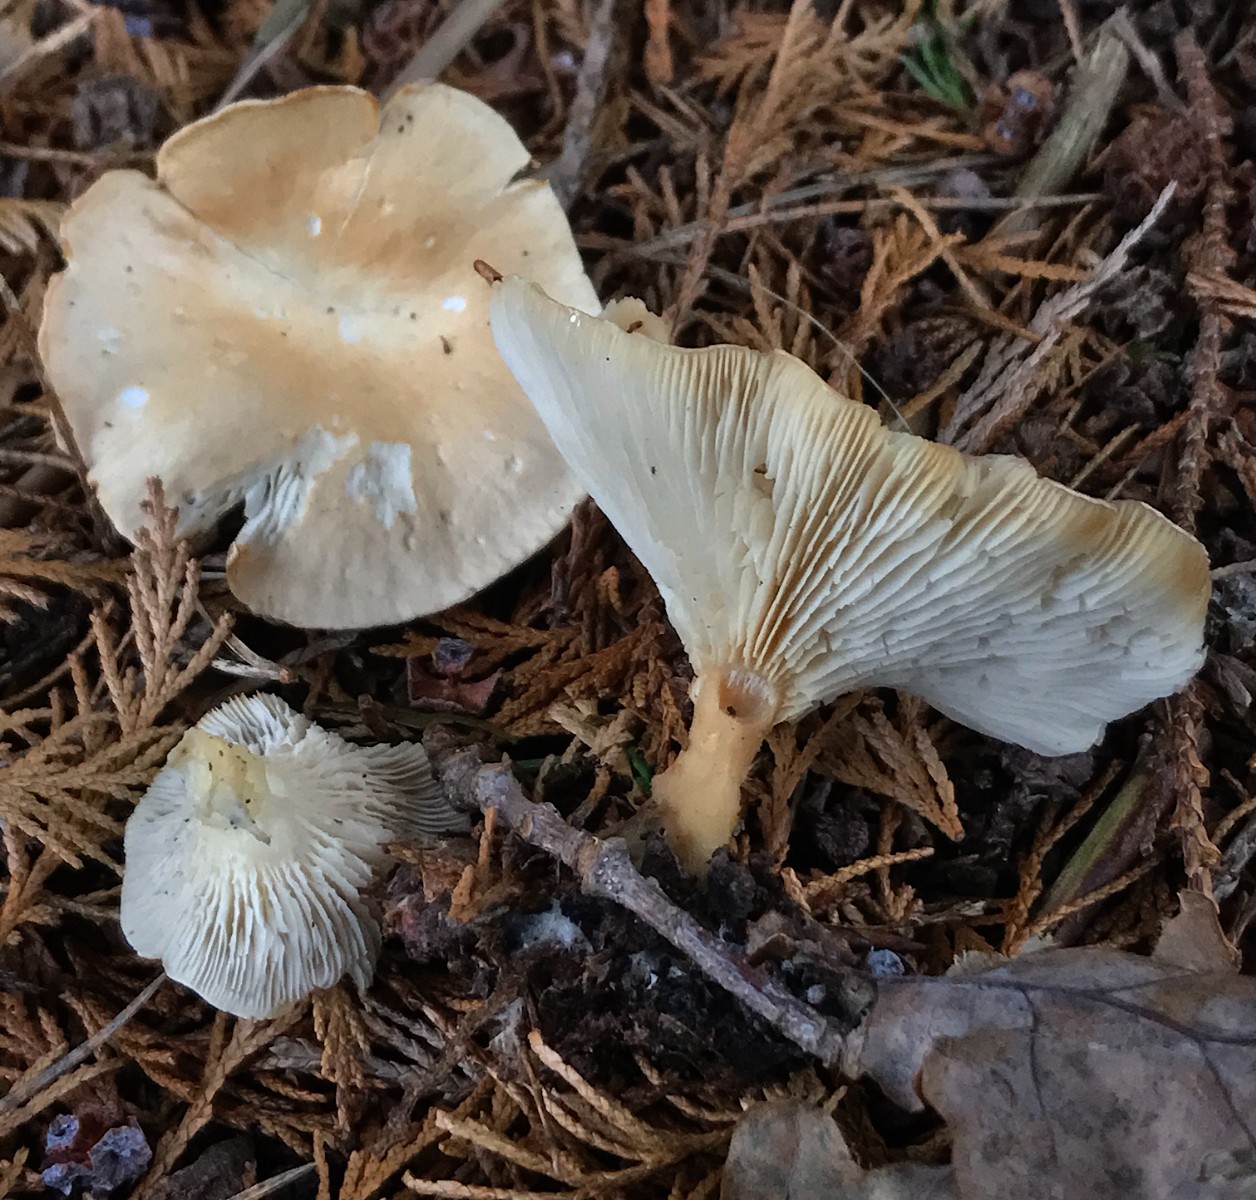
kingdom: Fungi
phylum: Basidiomycota
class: Agaricomycetes
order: Agaricales
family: Tricholomataceae
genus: Infundibulicybe
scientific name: Infundibulicybe gibba
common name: almindelig tragthat
